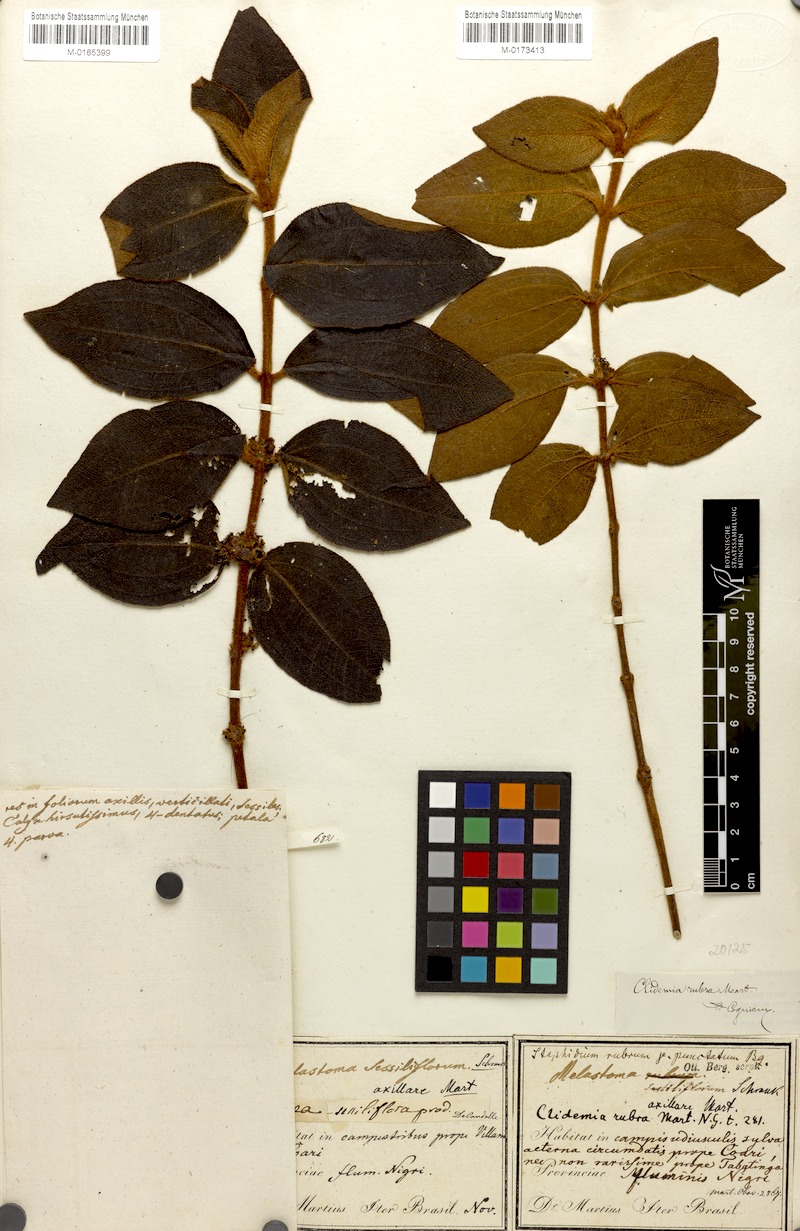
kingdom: Plantae
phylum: Tracheophyta
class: Magnoliopsida
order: Myrtales
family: Melastomataceae
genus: Miconia
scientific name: Miconia rubra
